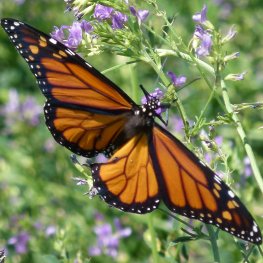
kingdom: Animalia
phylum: Arthropoda
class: Insecta
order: Lepidoptera
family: Nymphalidae
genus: Danaus
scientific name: Danaus plexippus
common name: Monarch
